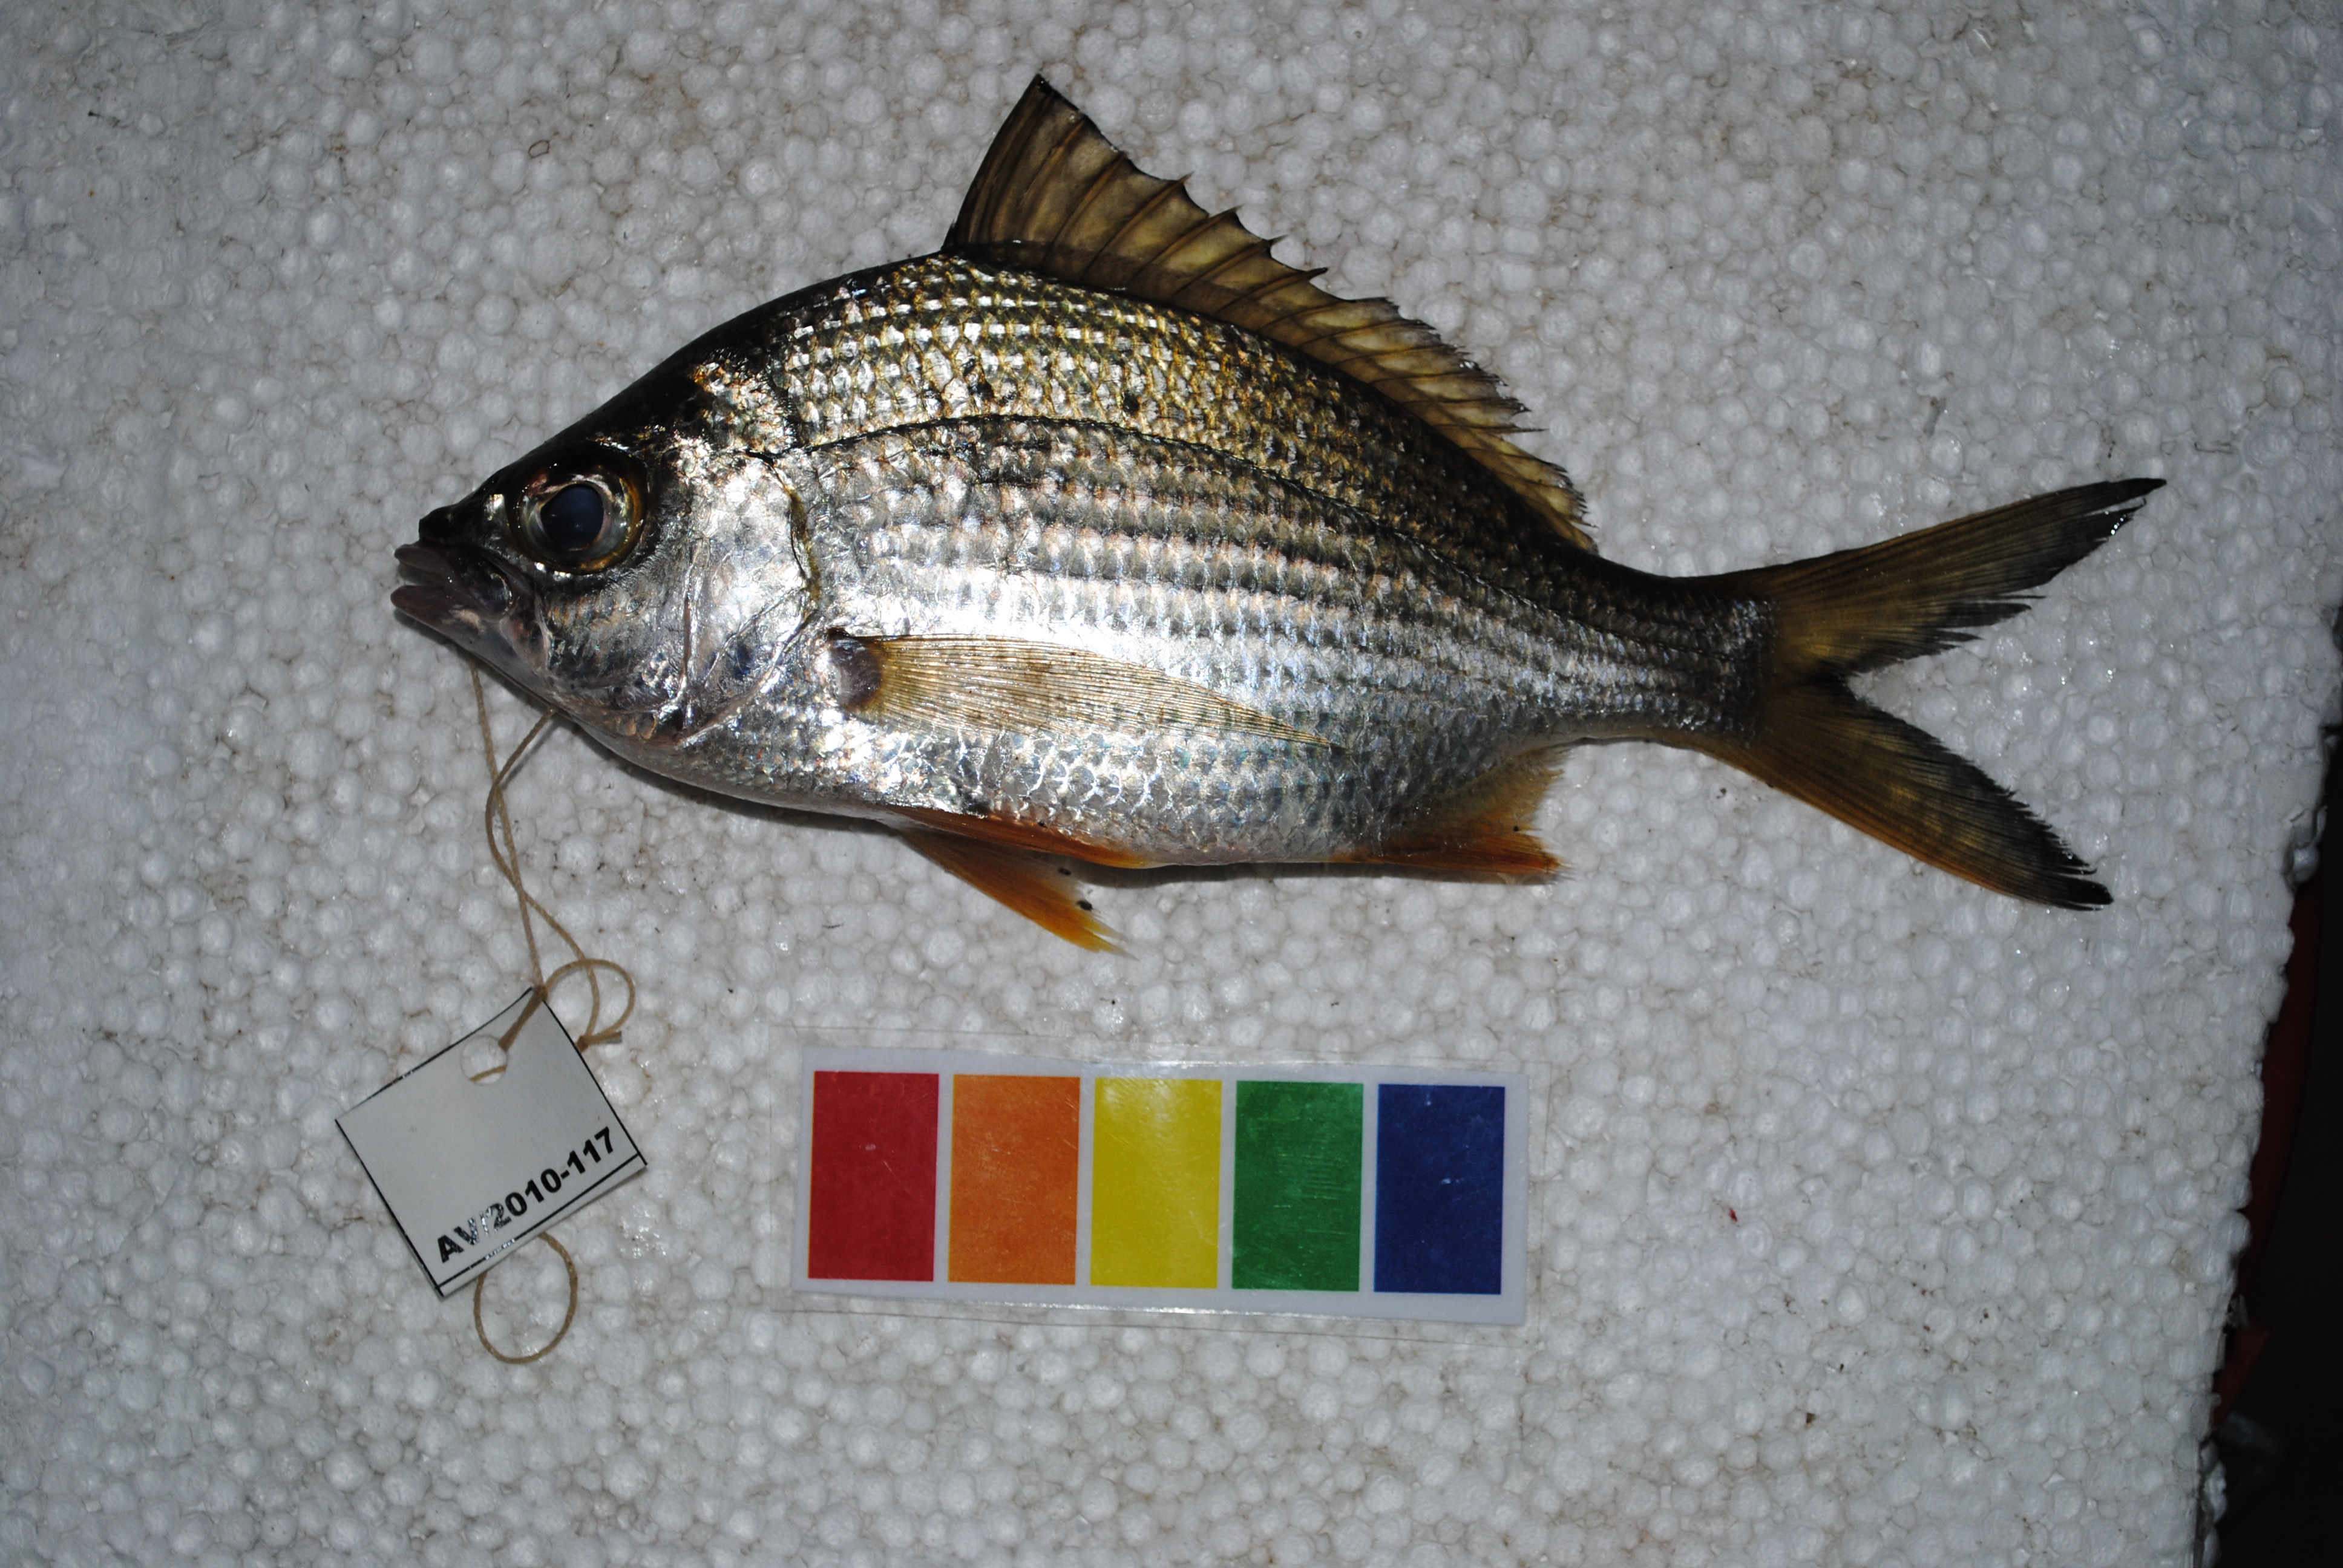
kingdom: Animalia
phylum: Chordata
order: Perciformes
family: Gerreidae
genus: Gerres
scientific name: Gerres methueni
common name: Longtail silverbiddy
